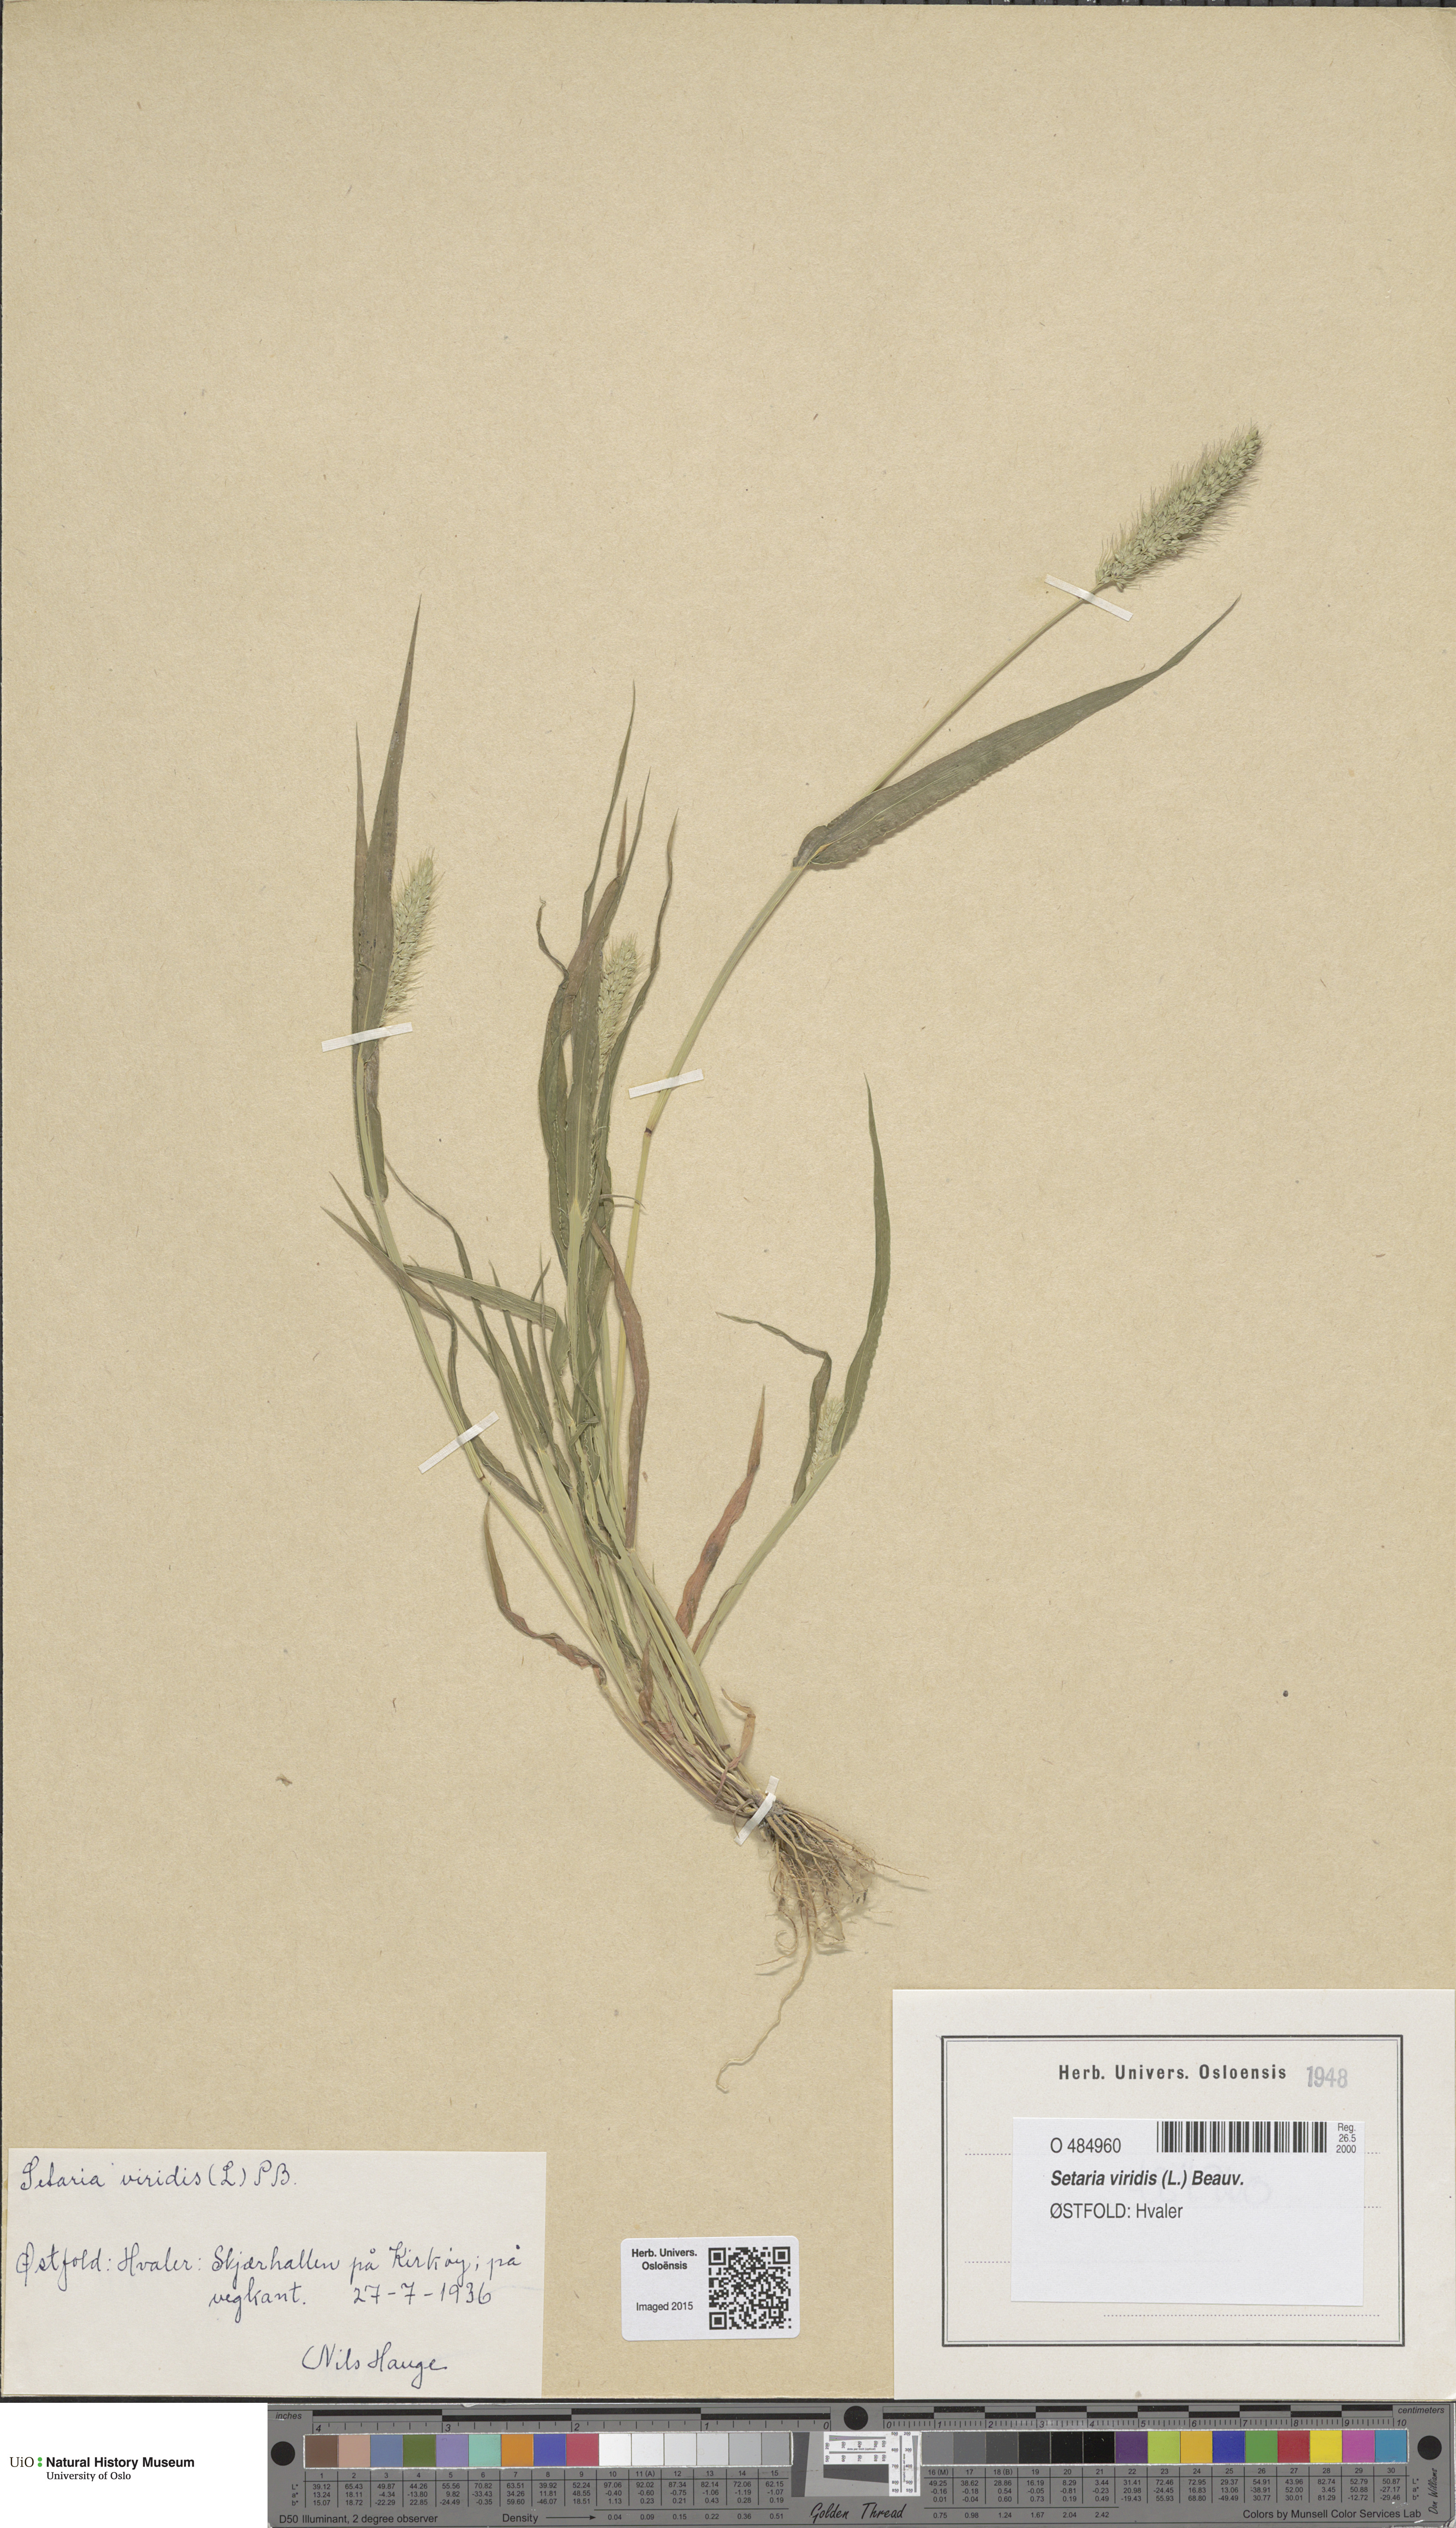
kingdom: Plantae
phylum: Tracheophyta
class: Liliopsida
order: Poales
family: Poaceae
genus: Setaria
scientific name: Setaria viridis
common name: Green bristlegrass
